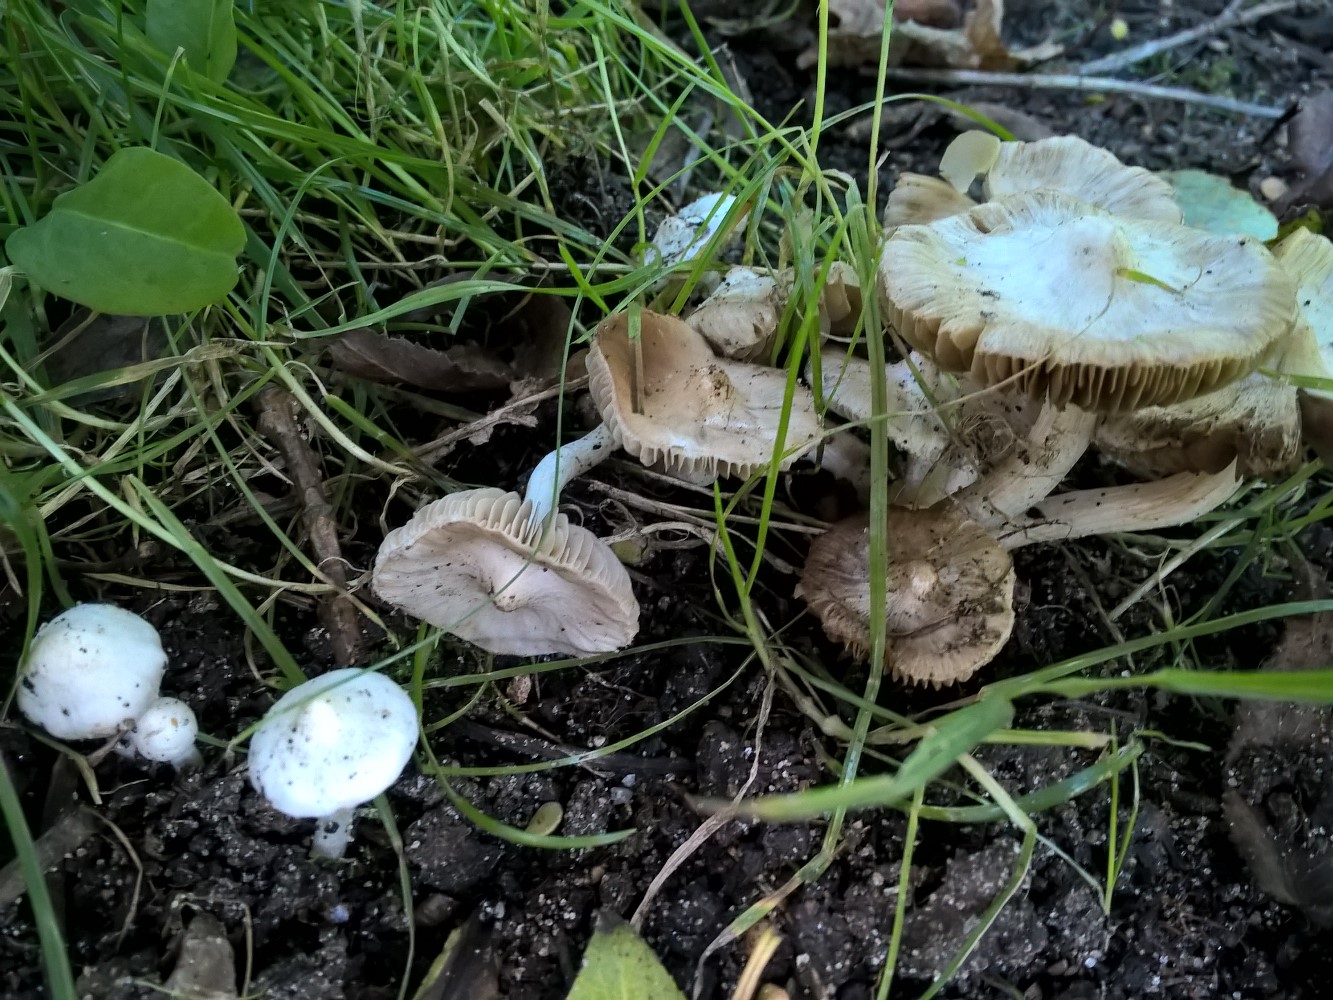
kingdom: Fungi
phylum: Basidiomycota
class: Agaricomycetes
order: Agaricales
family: Inocybaceae
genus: Inocybe
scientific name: Inocybe
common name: almindelig trævlhat
